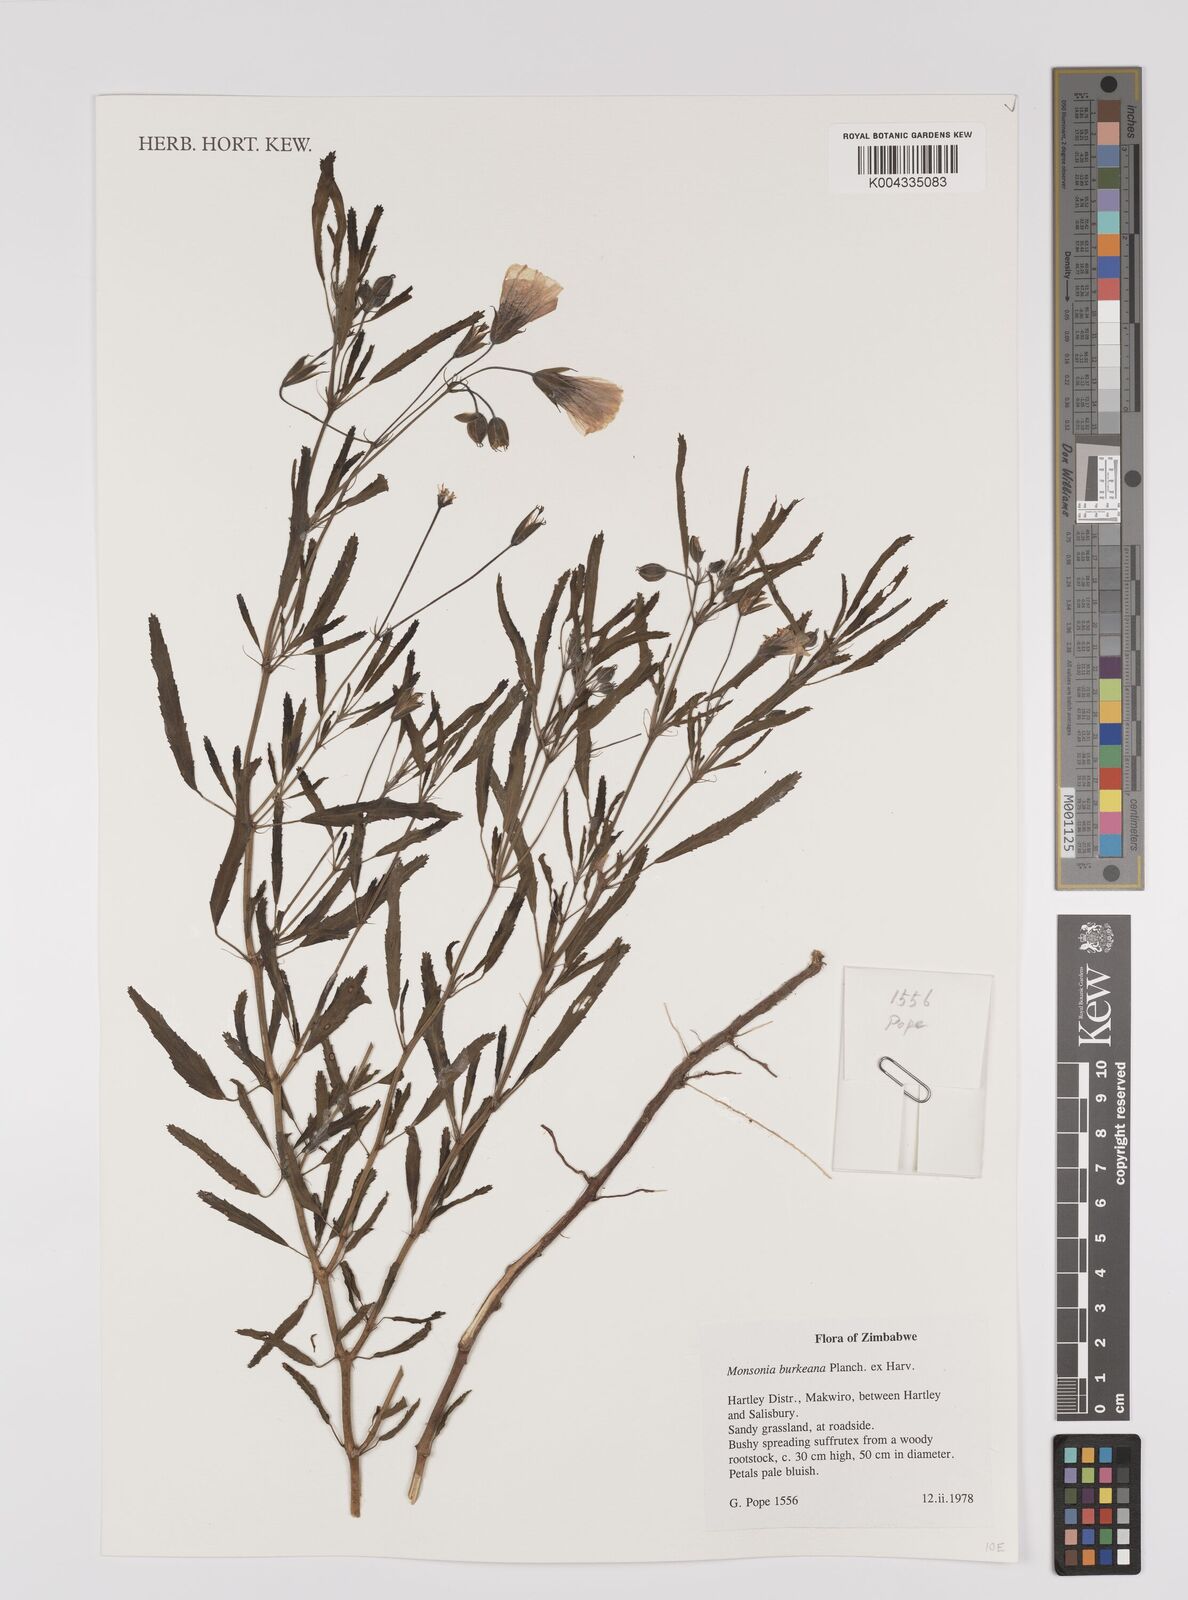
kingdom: Plantae
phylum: Tracheophyta
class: Magnoliopsida
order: Geraniales
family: Geraniaceae
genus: Monsonia
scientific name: Monsonia biflora
